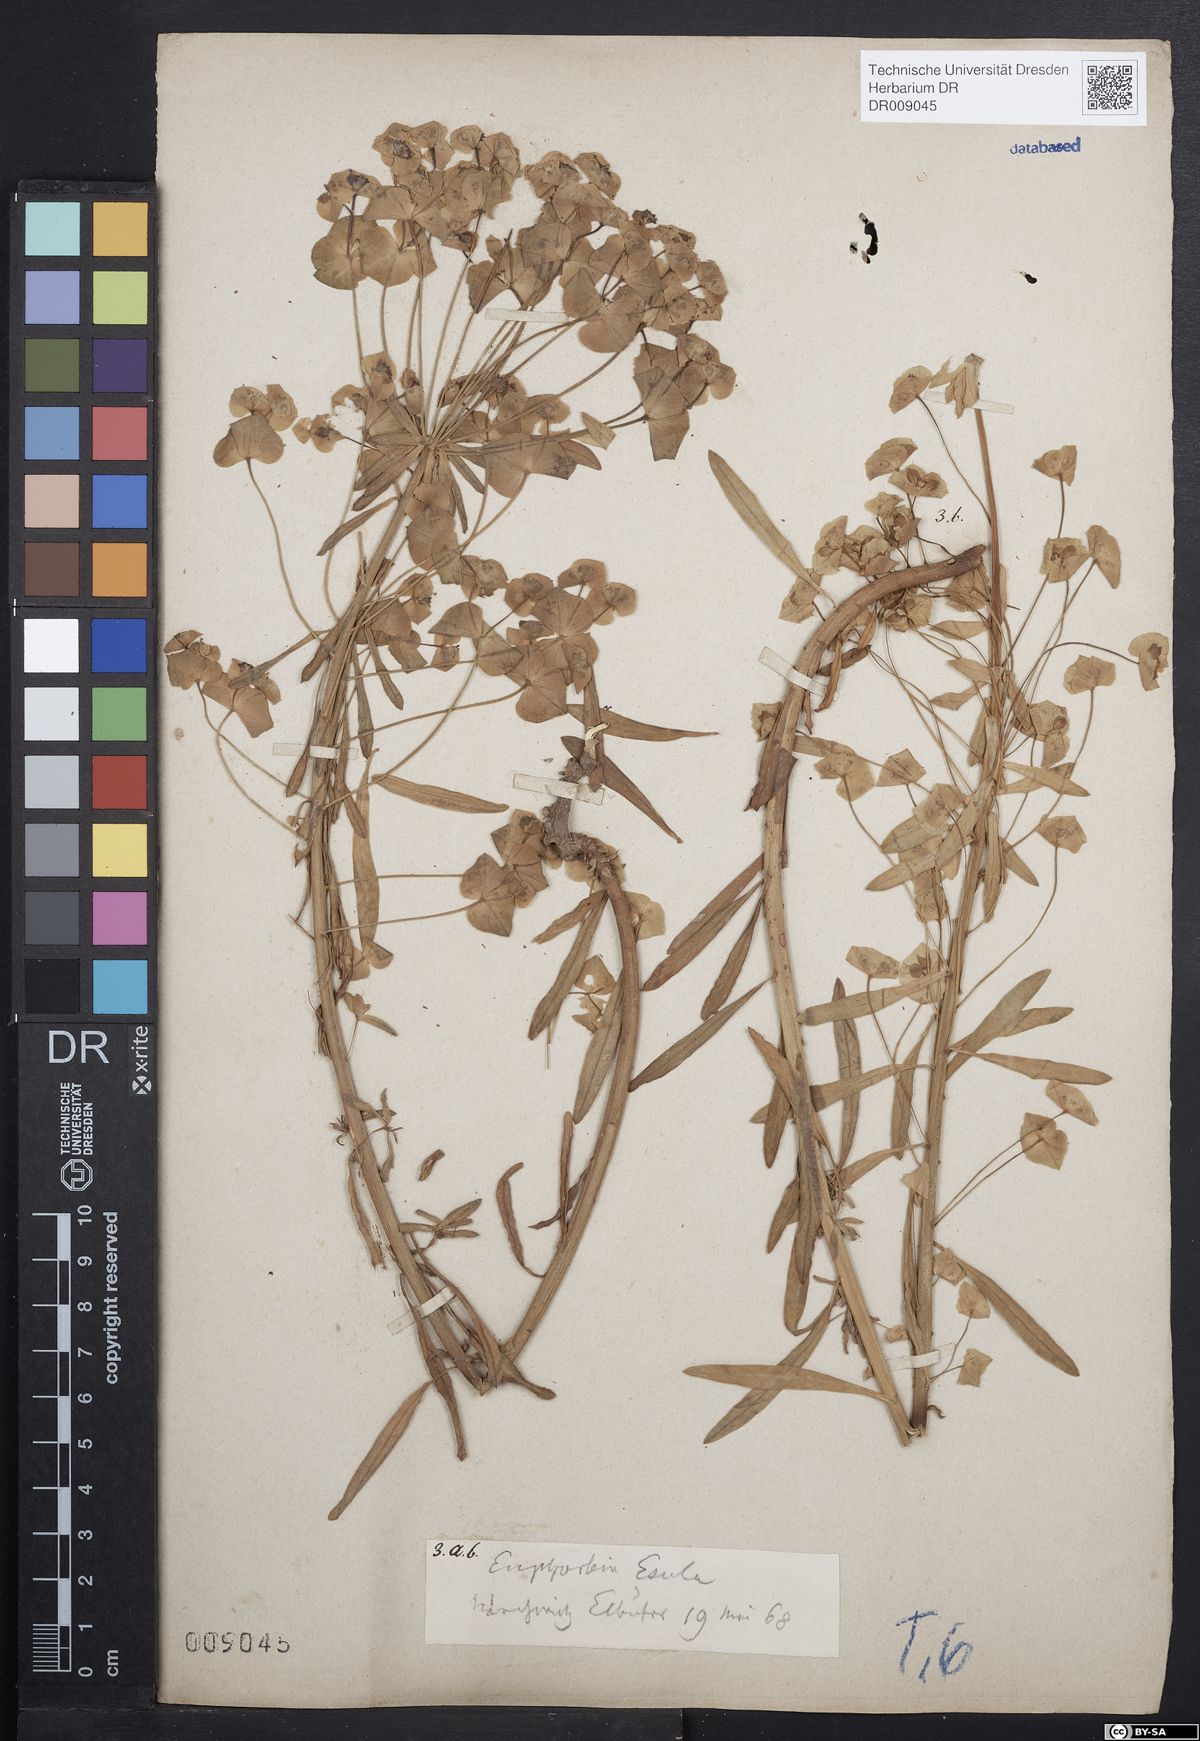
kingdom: Plantae
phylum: Tracheophyta
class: Magnoliopsida
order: Malpighiales
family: Euphorbiaceae
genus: Euphorbia
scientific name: Euphorbia esula
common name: Leafy spurge
